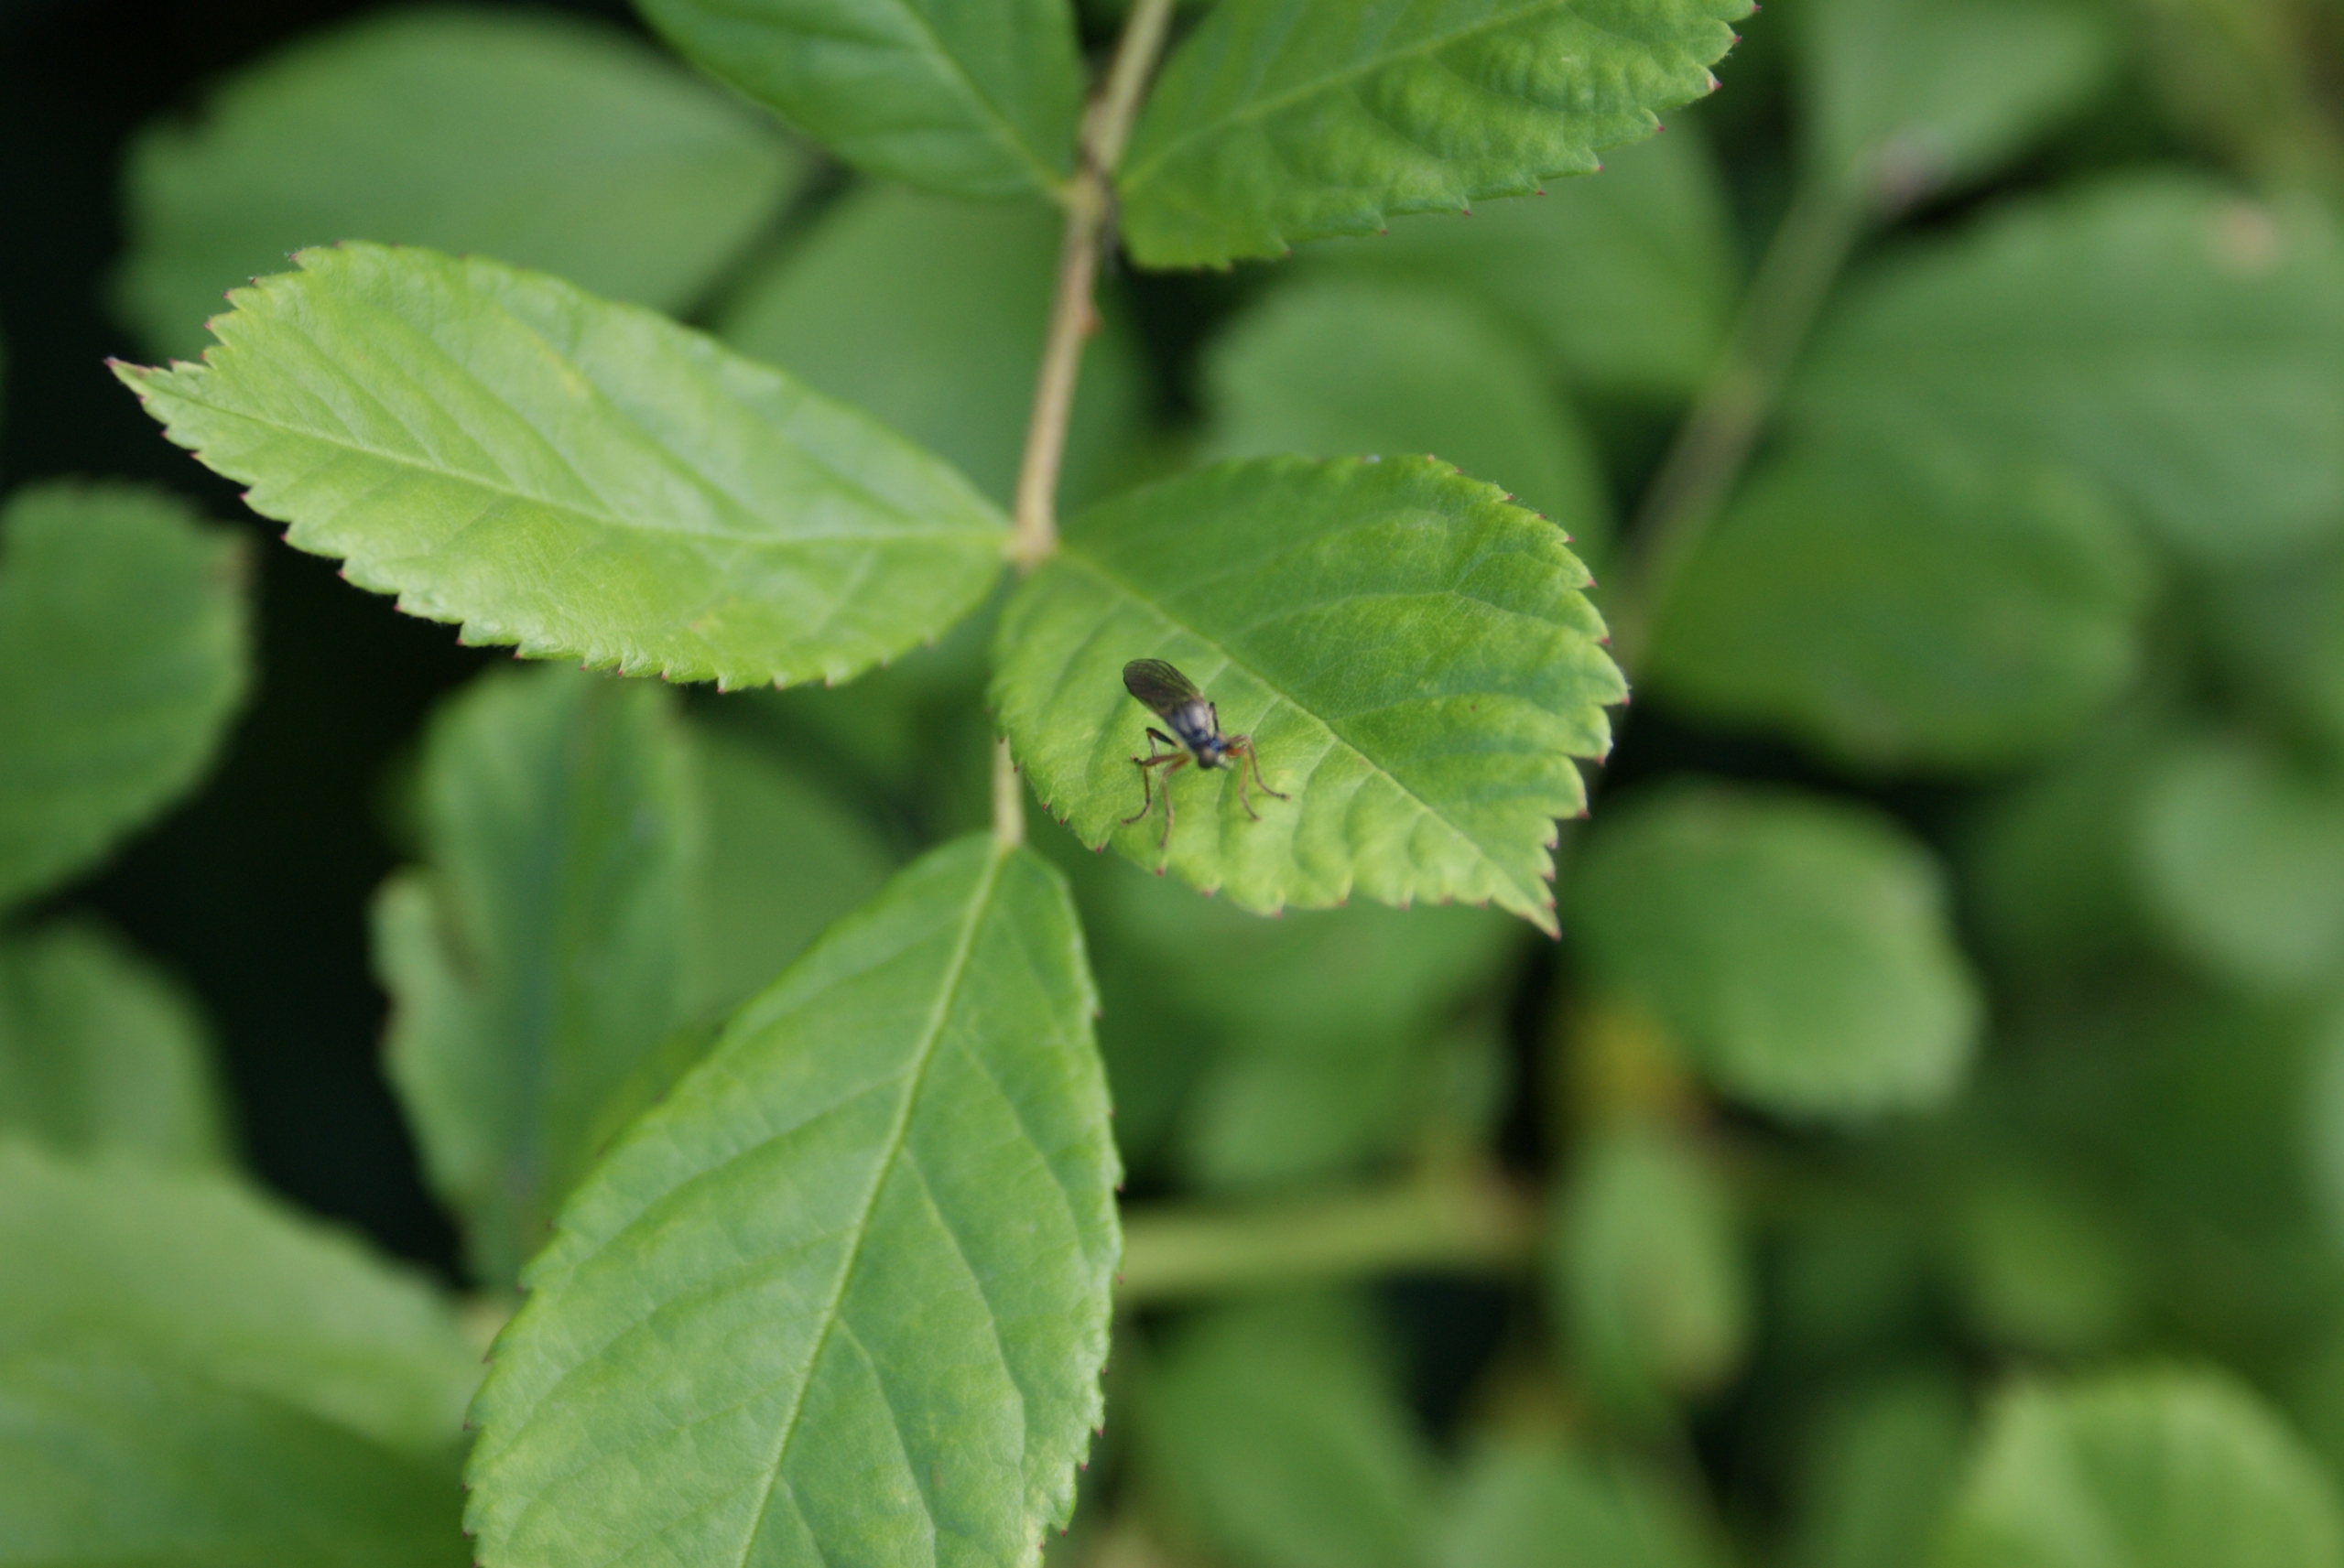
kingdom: Animalia
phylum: Arthropoda
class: Insecta
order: Diptera
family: Asilidae
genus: Dioctria
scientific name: Dioctria
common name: Engrovfluer
